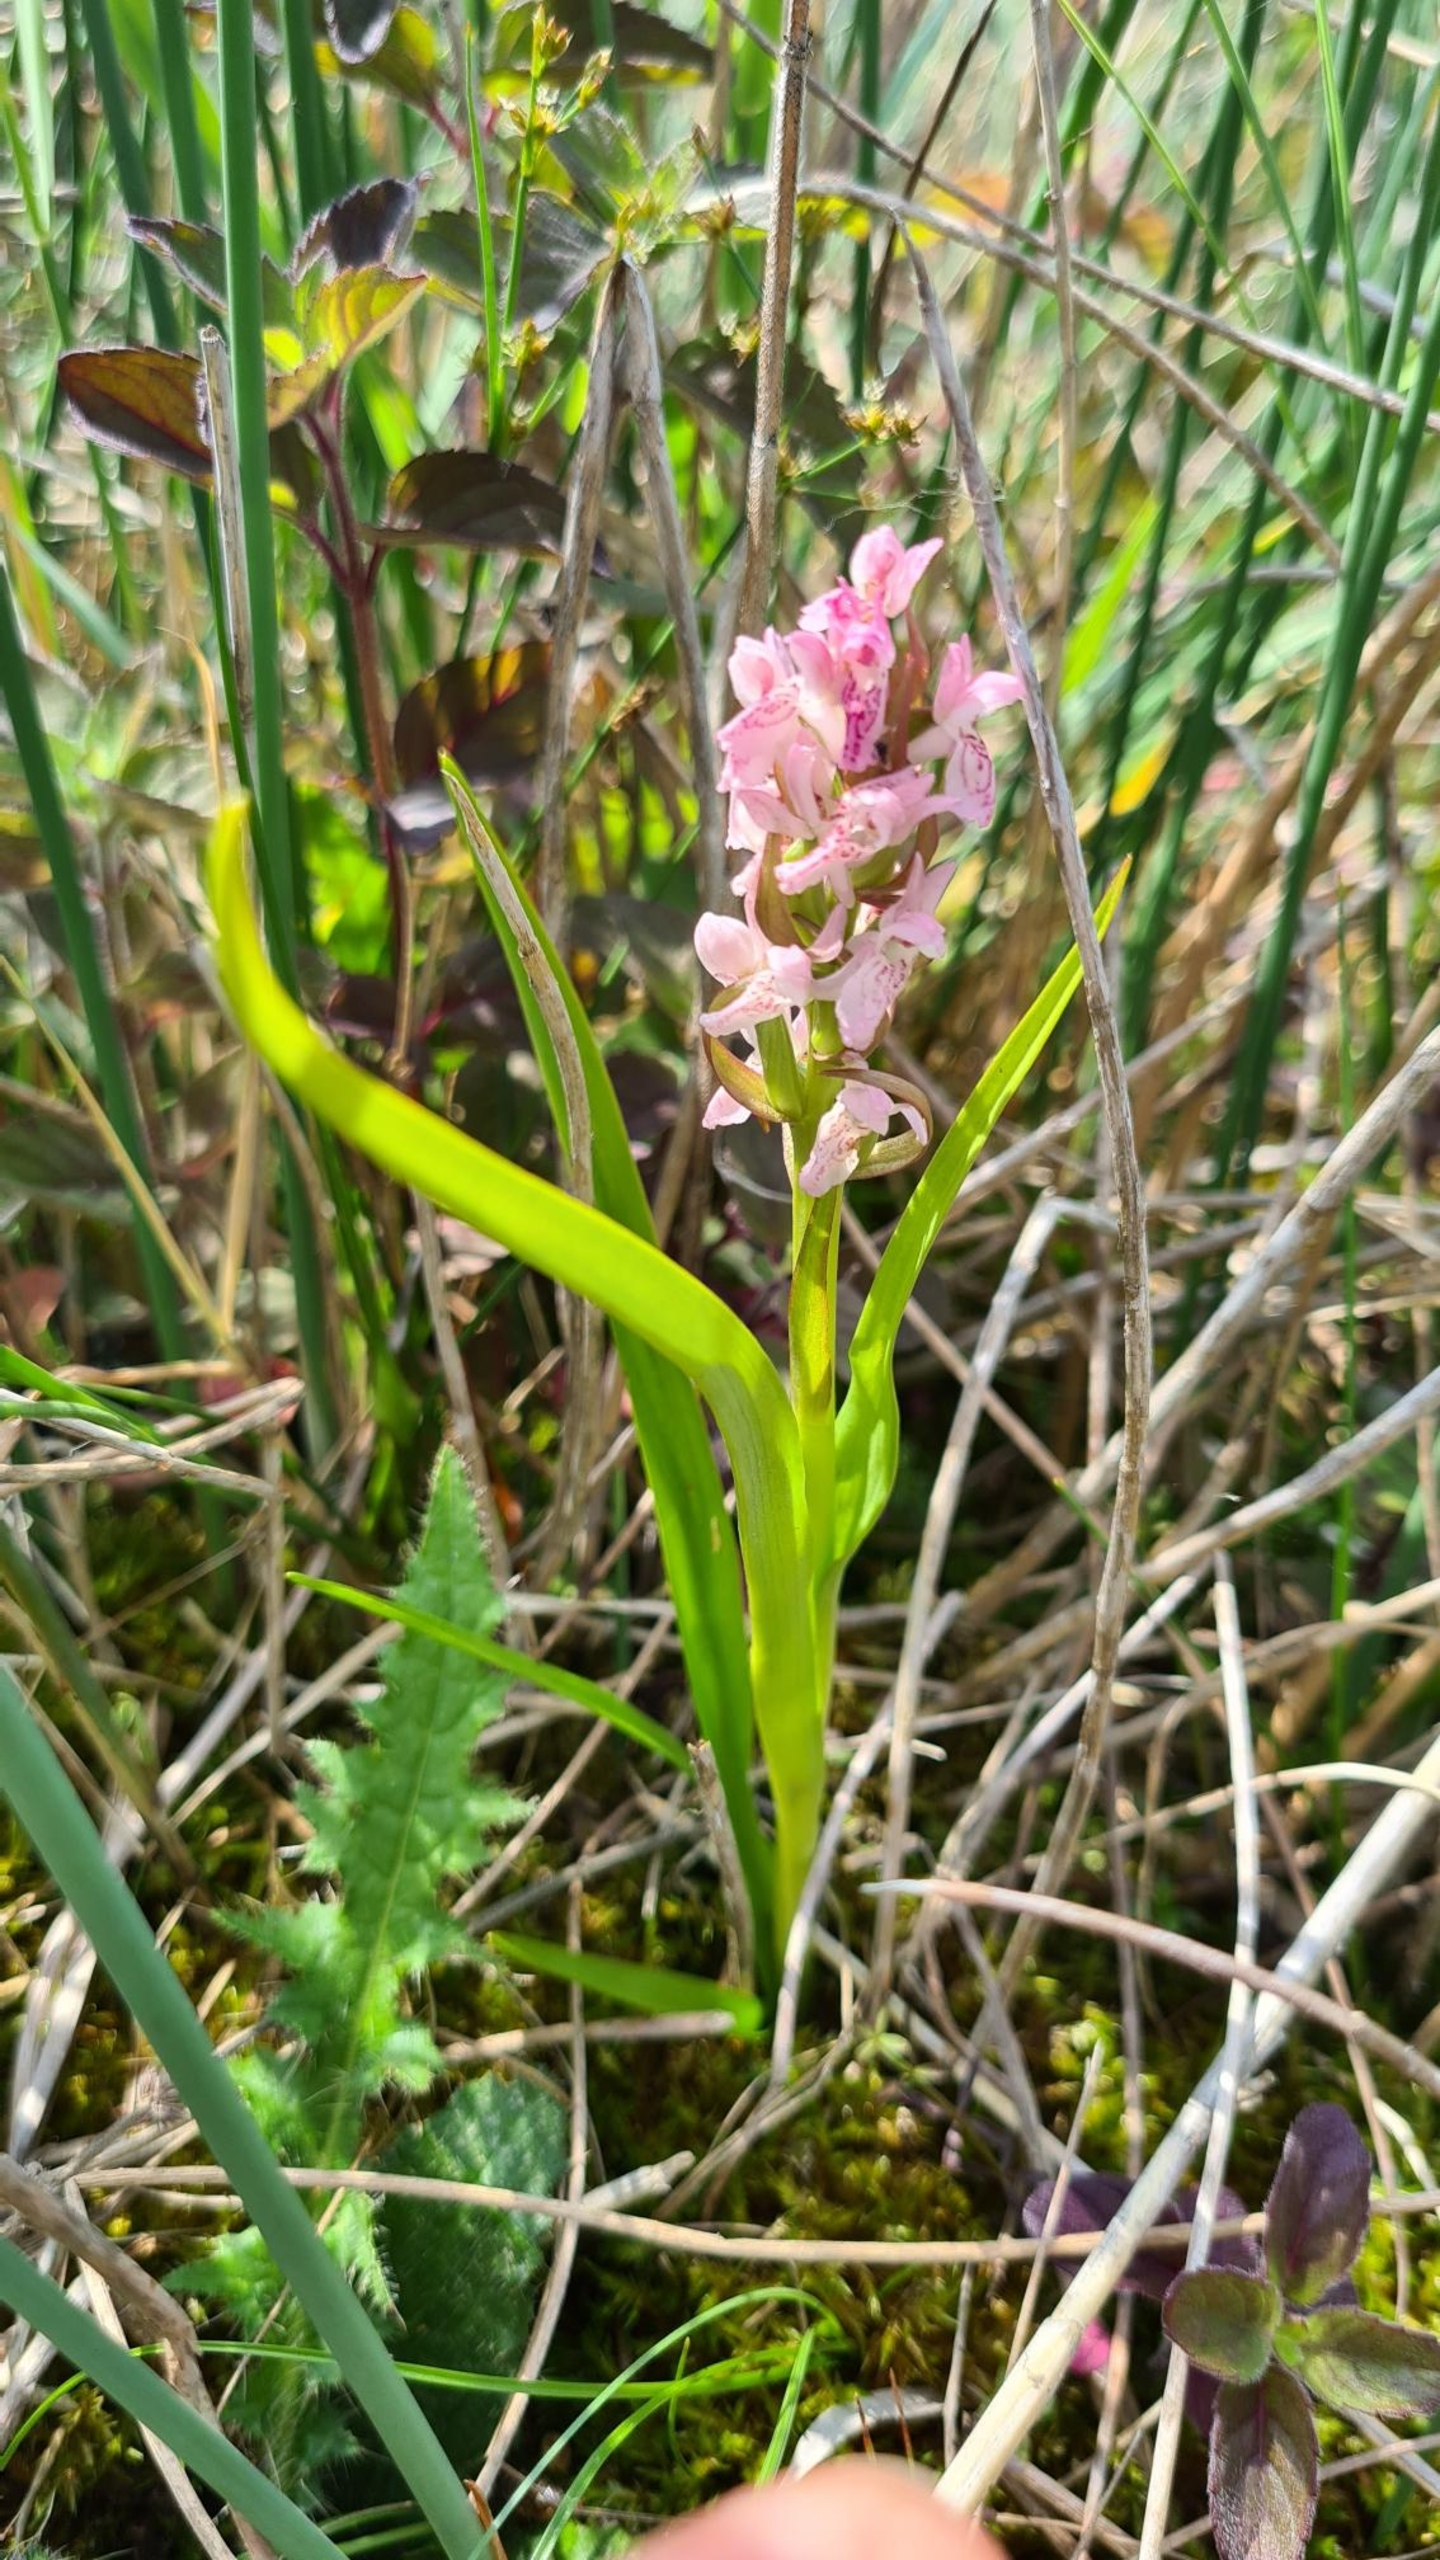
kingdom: Plantae
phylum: Tracheophyta
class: Liliopsida
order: Asparagales
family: Orchidaceae
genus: Dactylorhiza
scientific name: Dactylorhiza incarnata
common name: Kødfarvet gøgeurt
